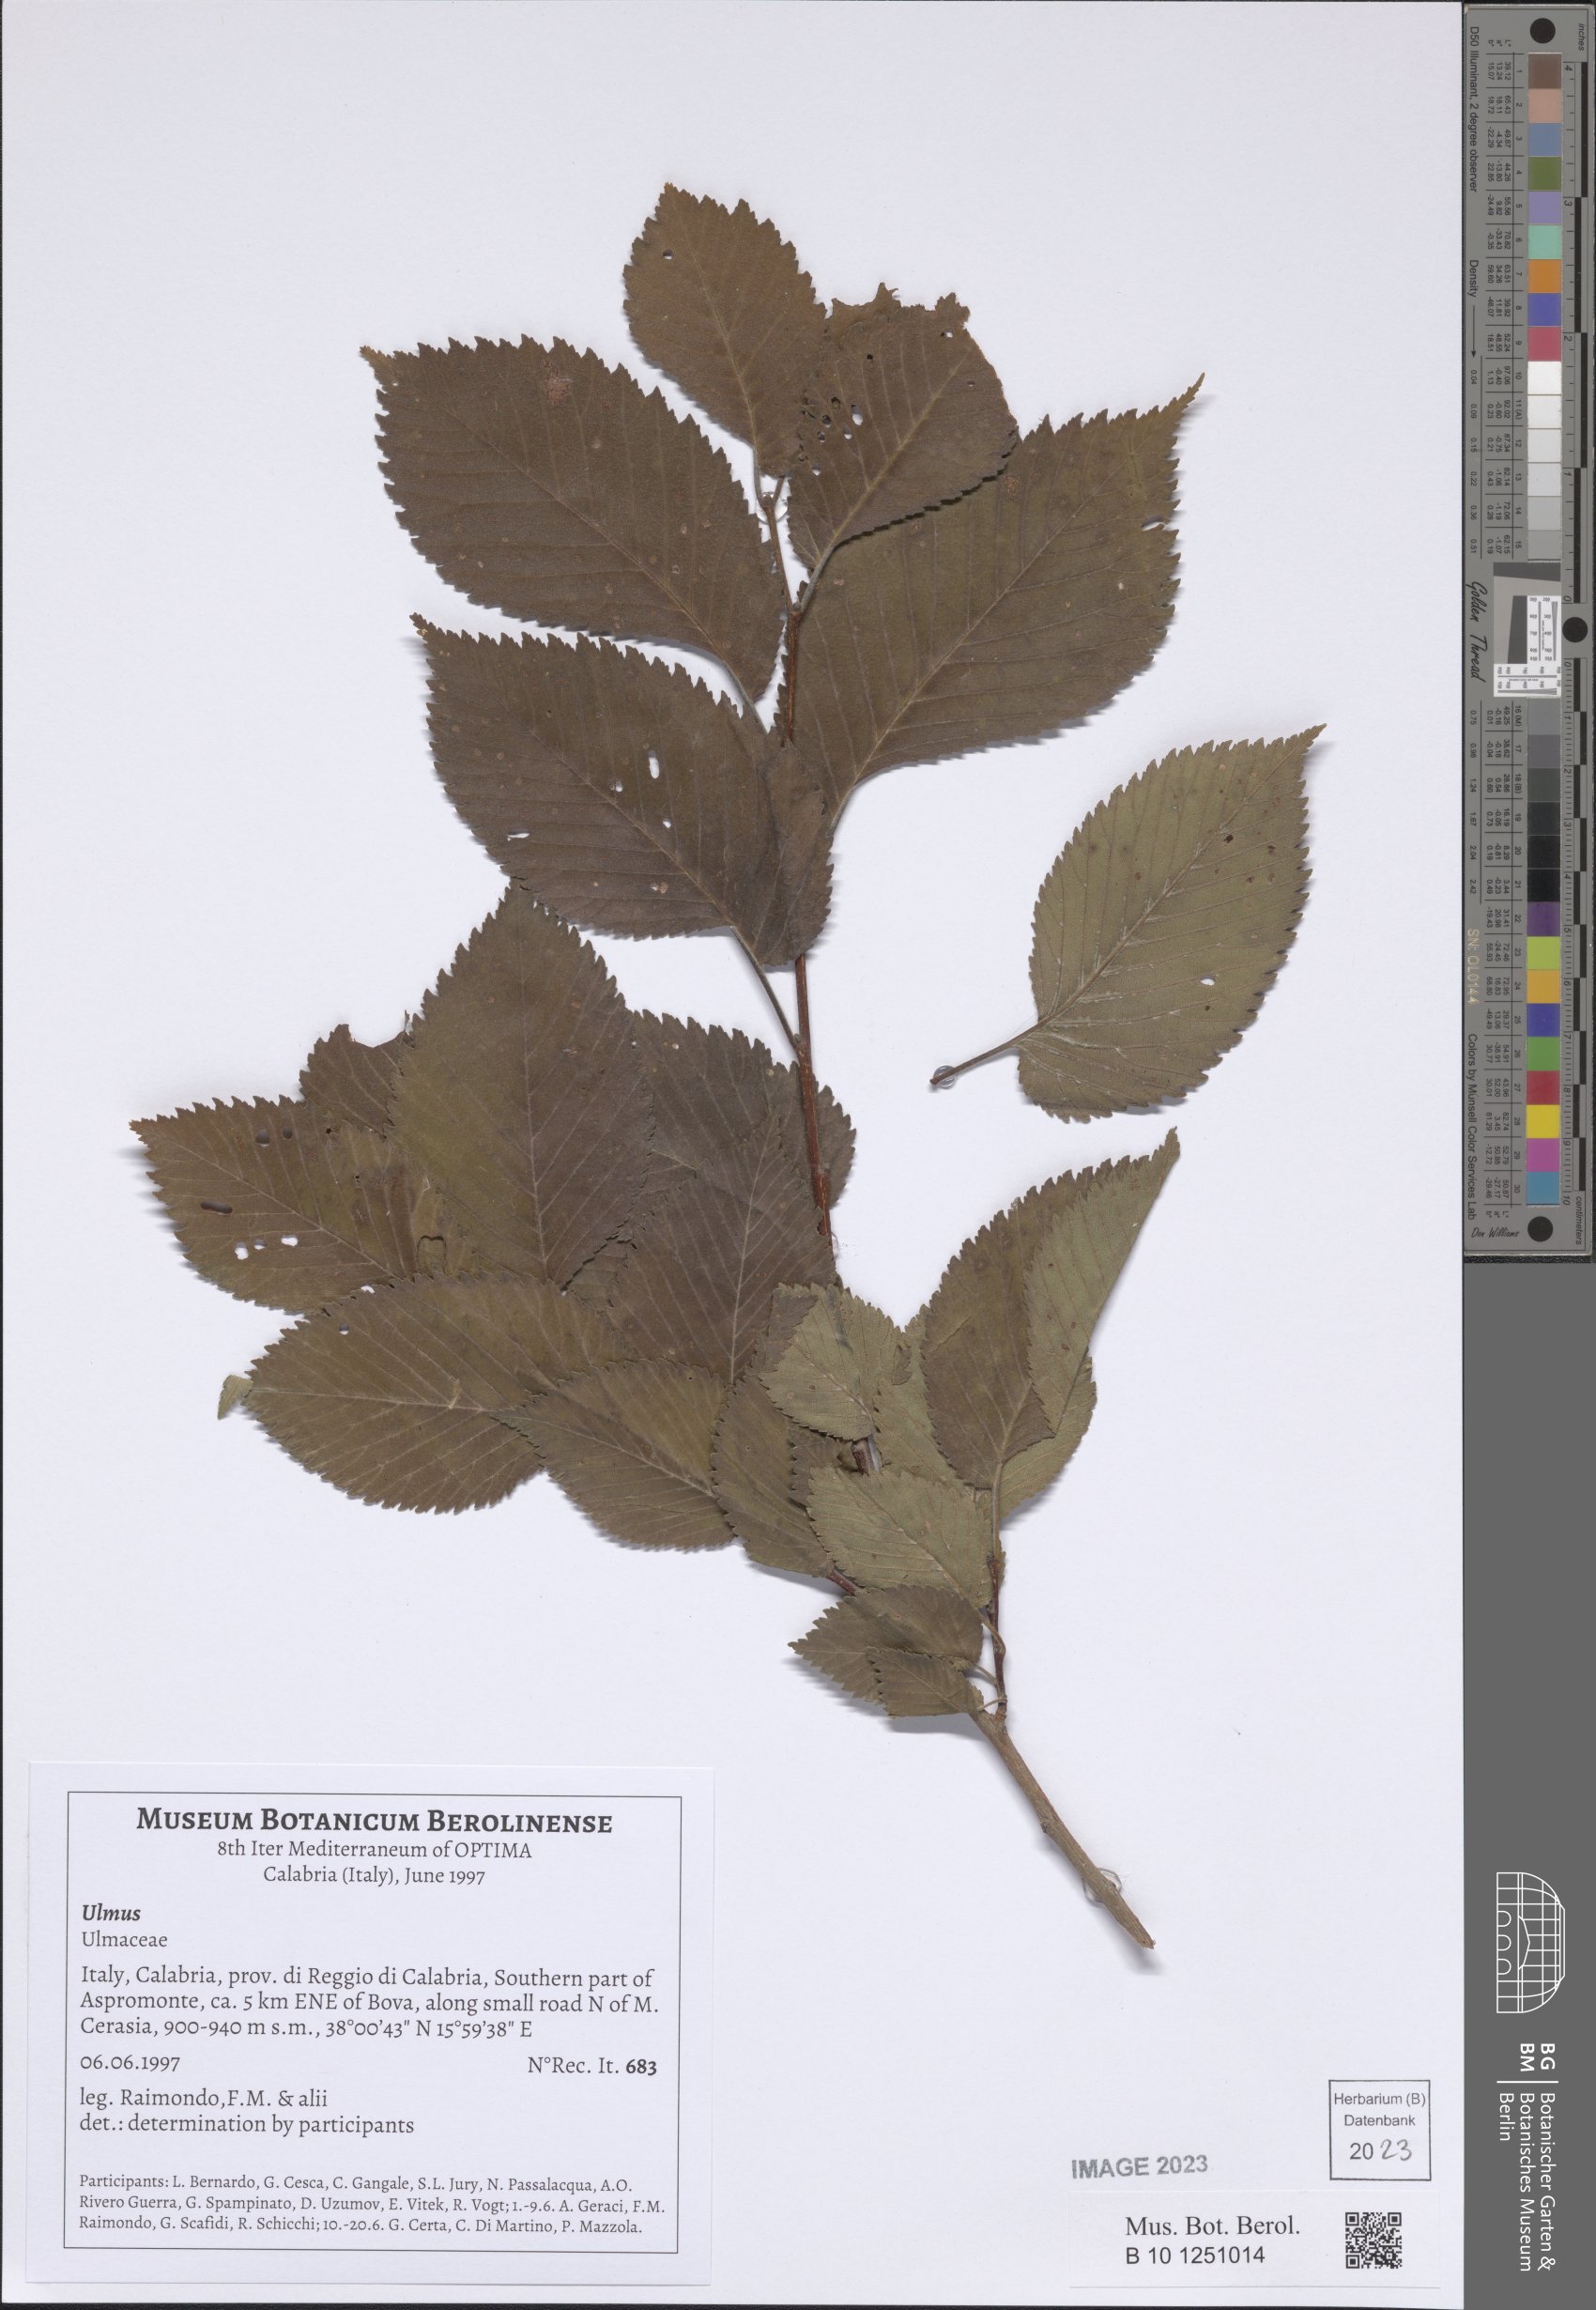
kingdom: Plantae
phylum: Tracheophyta
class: Magnoliopsida
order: Rosales
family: Ulmaceae
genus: Ulmus
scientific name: Ulmus
